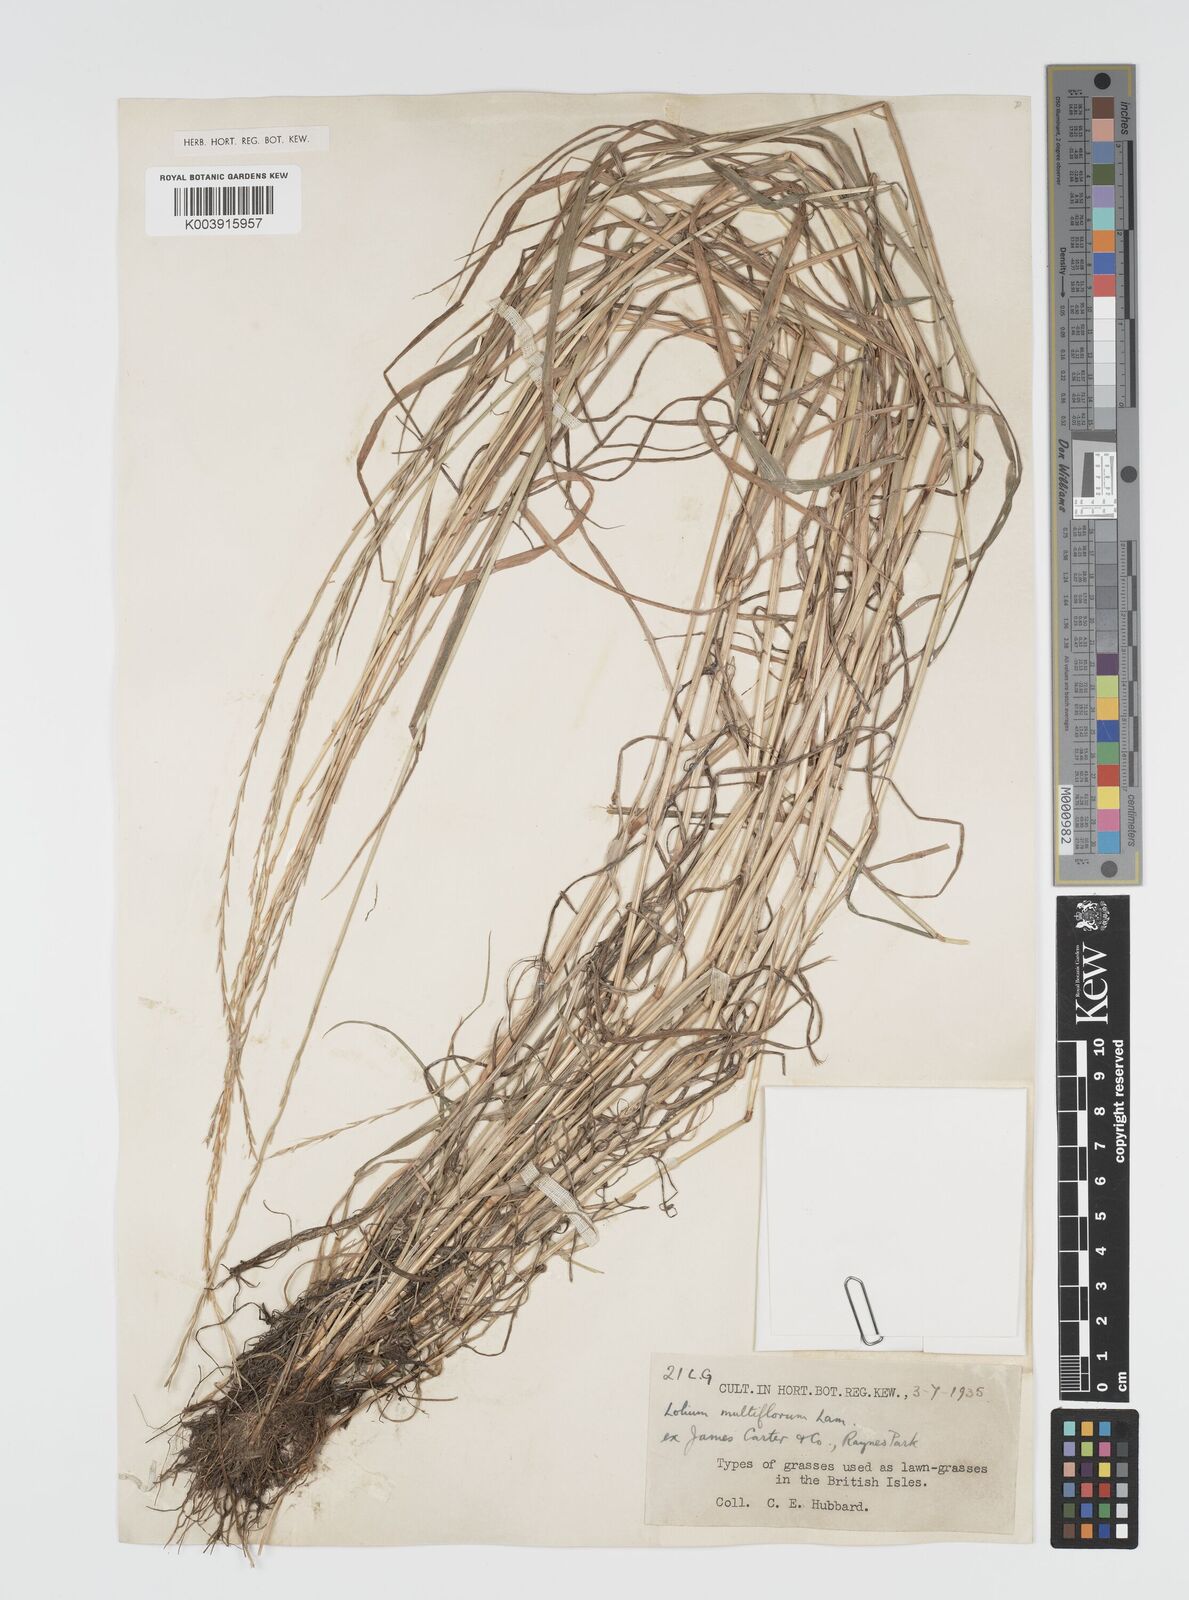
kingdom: Plantae
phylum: Tracheophyta
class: Liliopsida
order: Poales
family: Poaceae
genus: Lolium
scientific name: Lolium multiflorum
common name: Annual ryegrass
